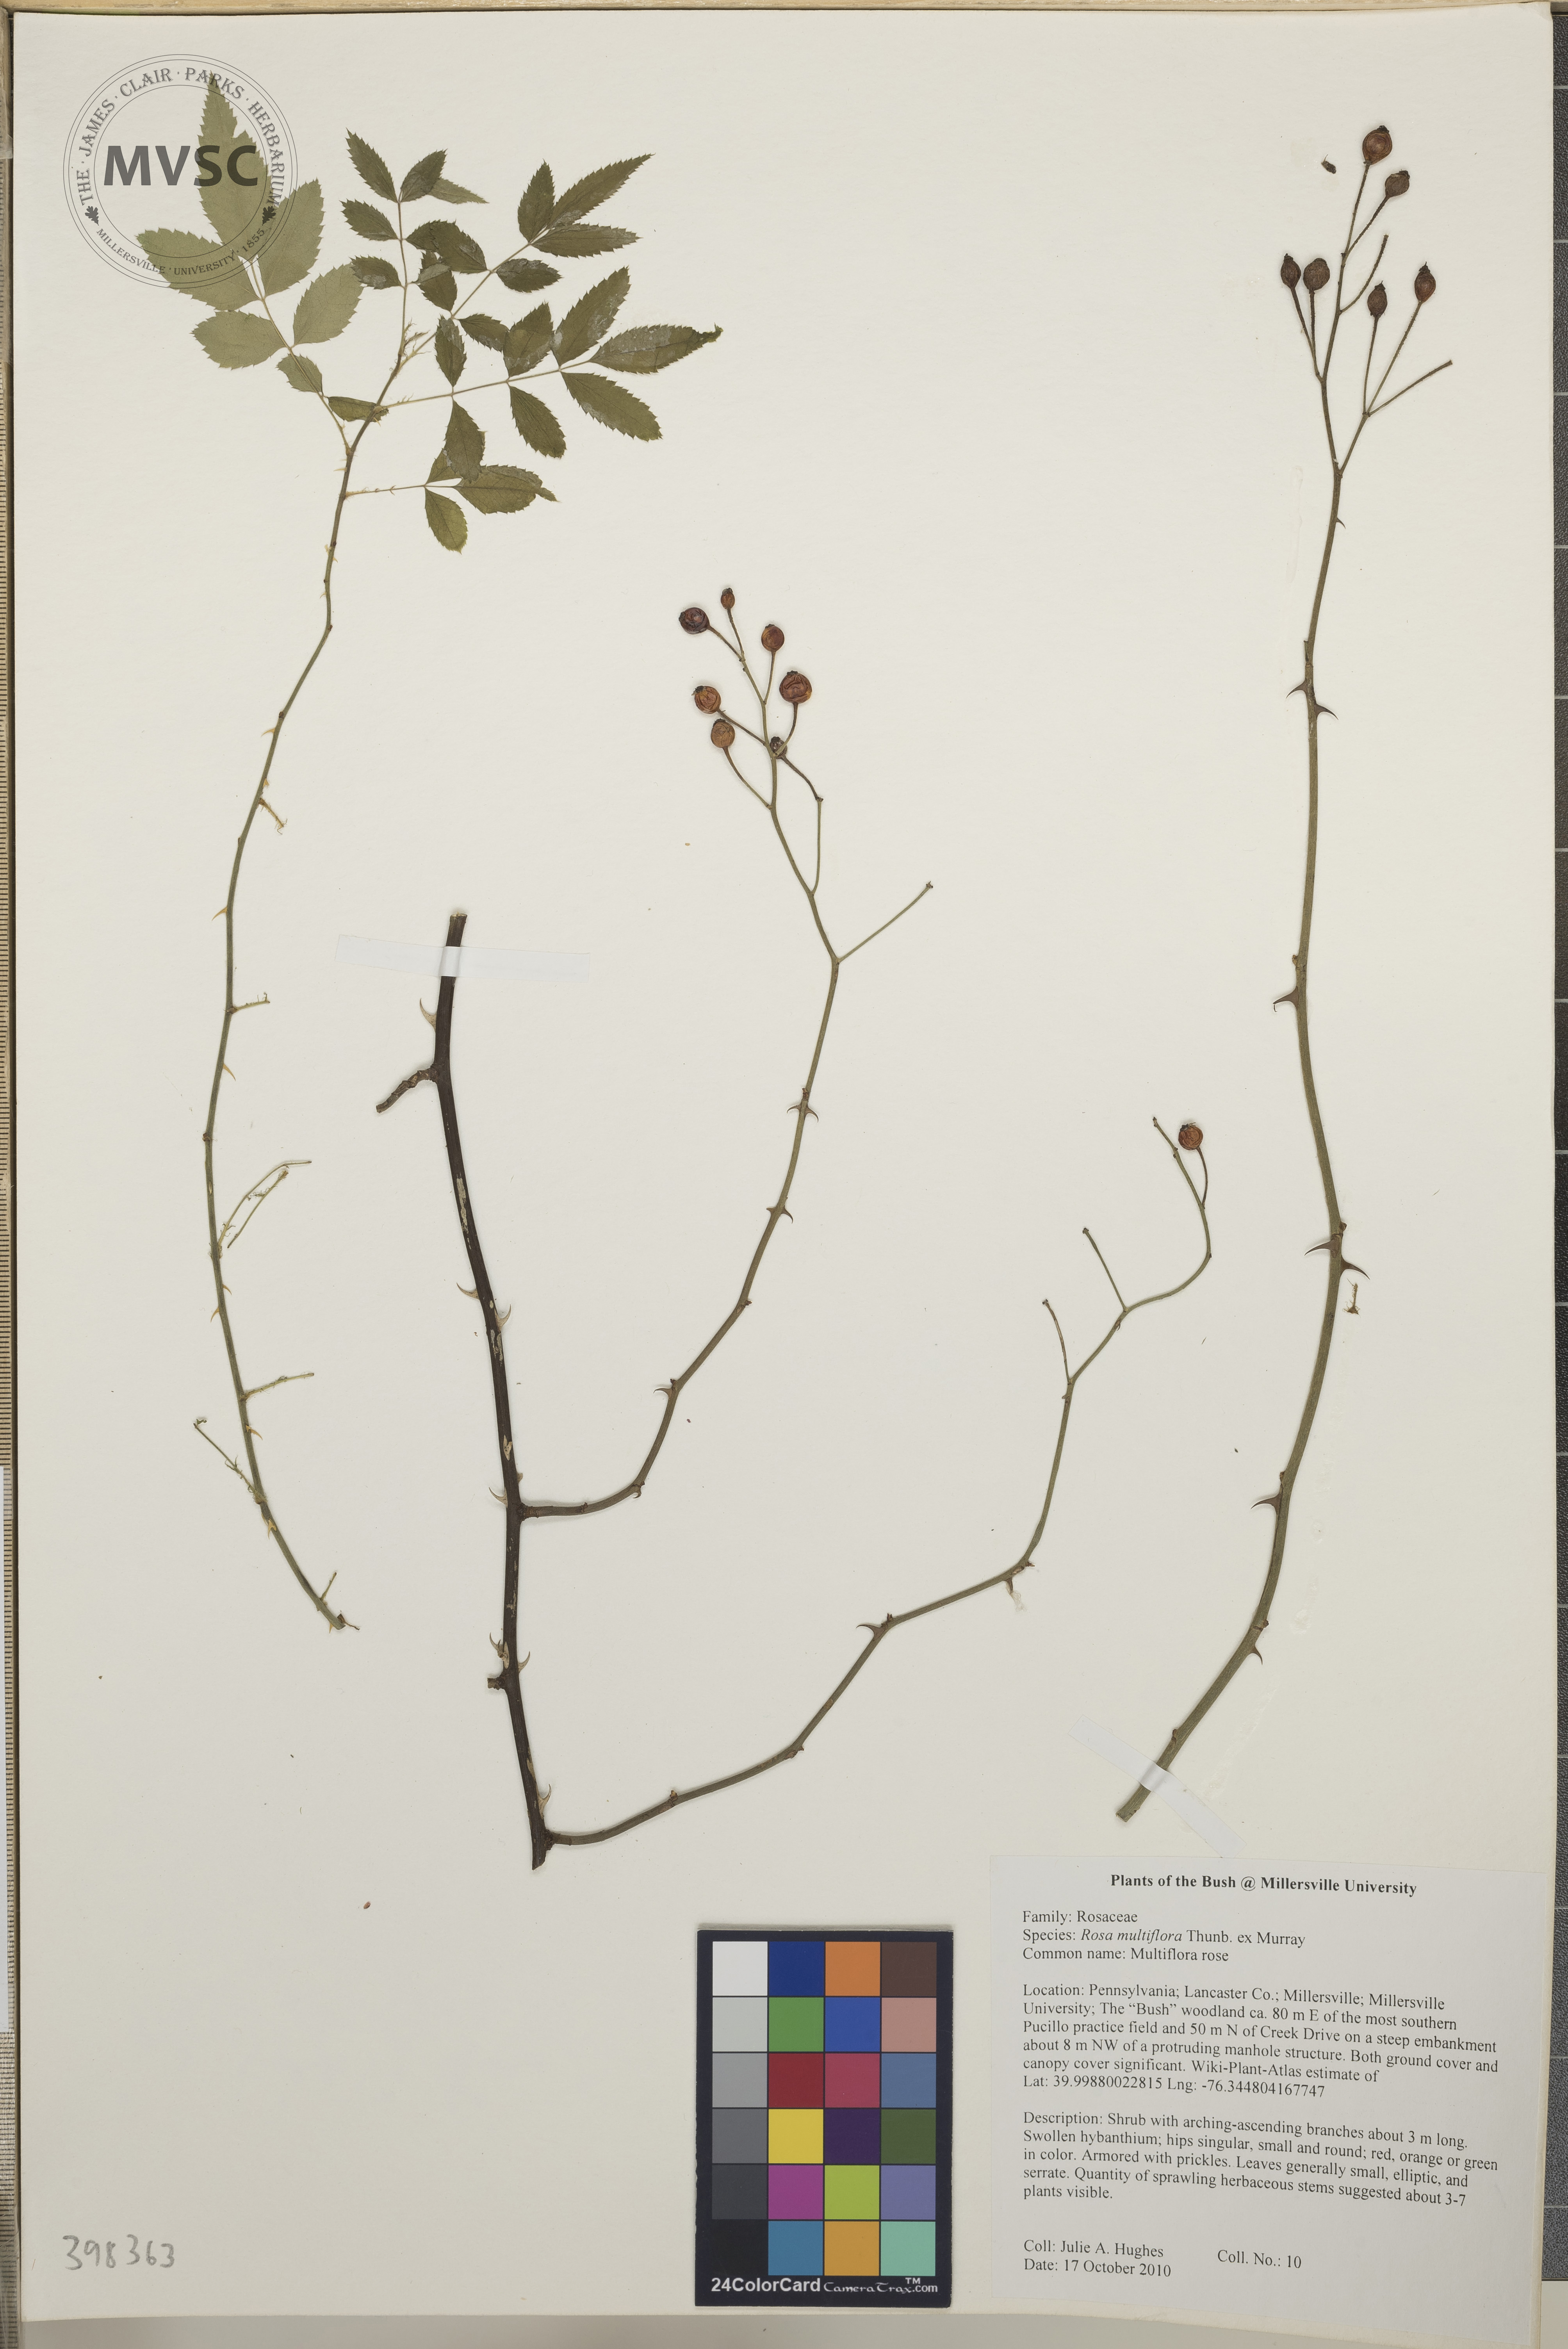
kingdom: Plantae
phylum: Tracheophyta
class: Magnoliopsida
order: Rosales
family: Rosaceae
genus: Rosa
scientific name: Rosa multiflora
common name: Multiflora rose
